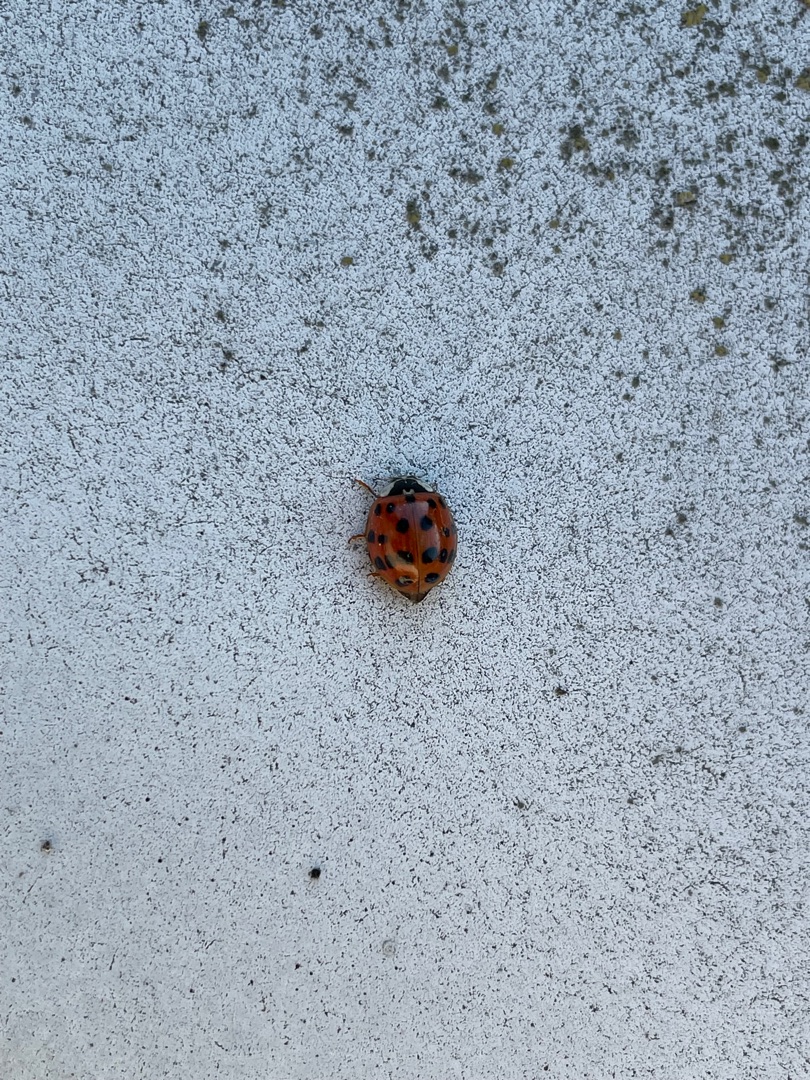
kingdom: Animalia
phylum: Arthropoda
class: Insecta
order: Coleoptera
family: Coccinellidae
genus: Harmonia
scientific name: Harmonia axyridis
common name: Harlekinmariehøne
